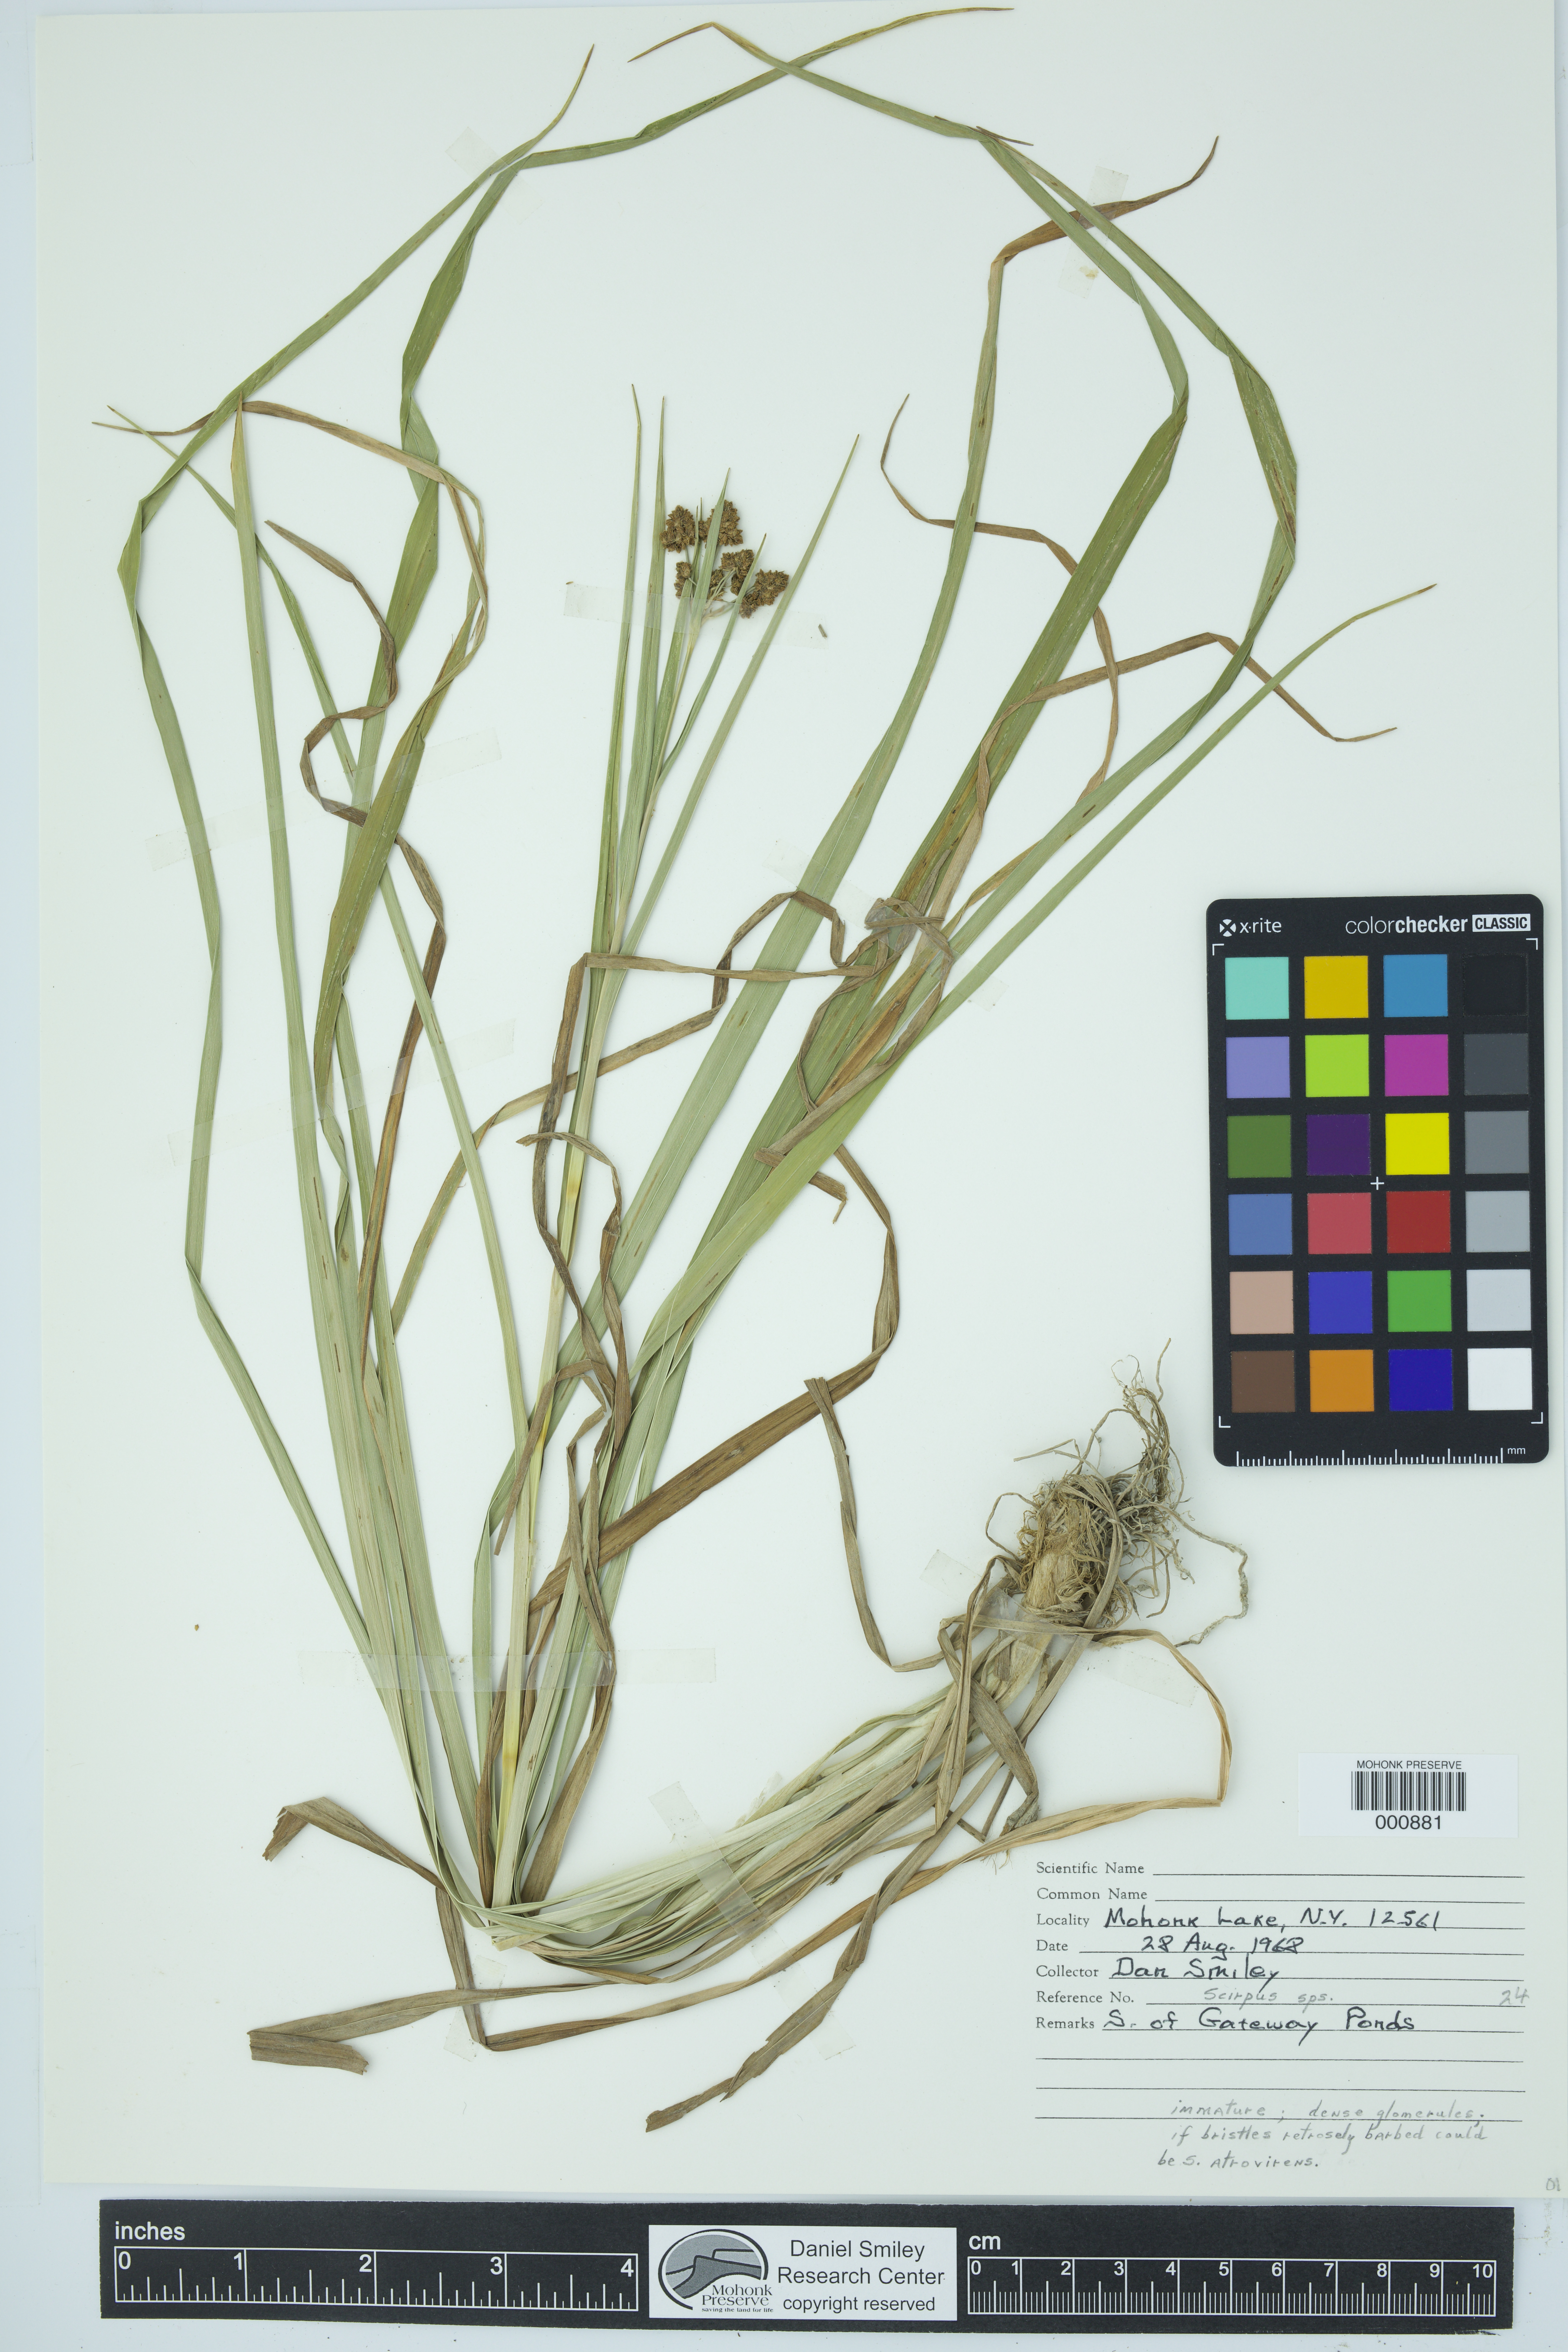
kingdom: Plantae
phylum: Tracheophyta
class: Liliopsida
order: Poales
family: Cyperaceae
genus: Scirpus
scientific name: Scirpus
